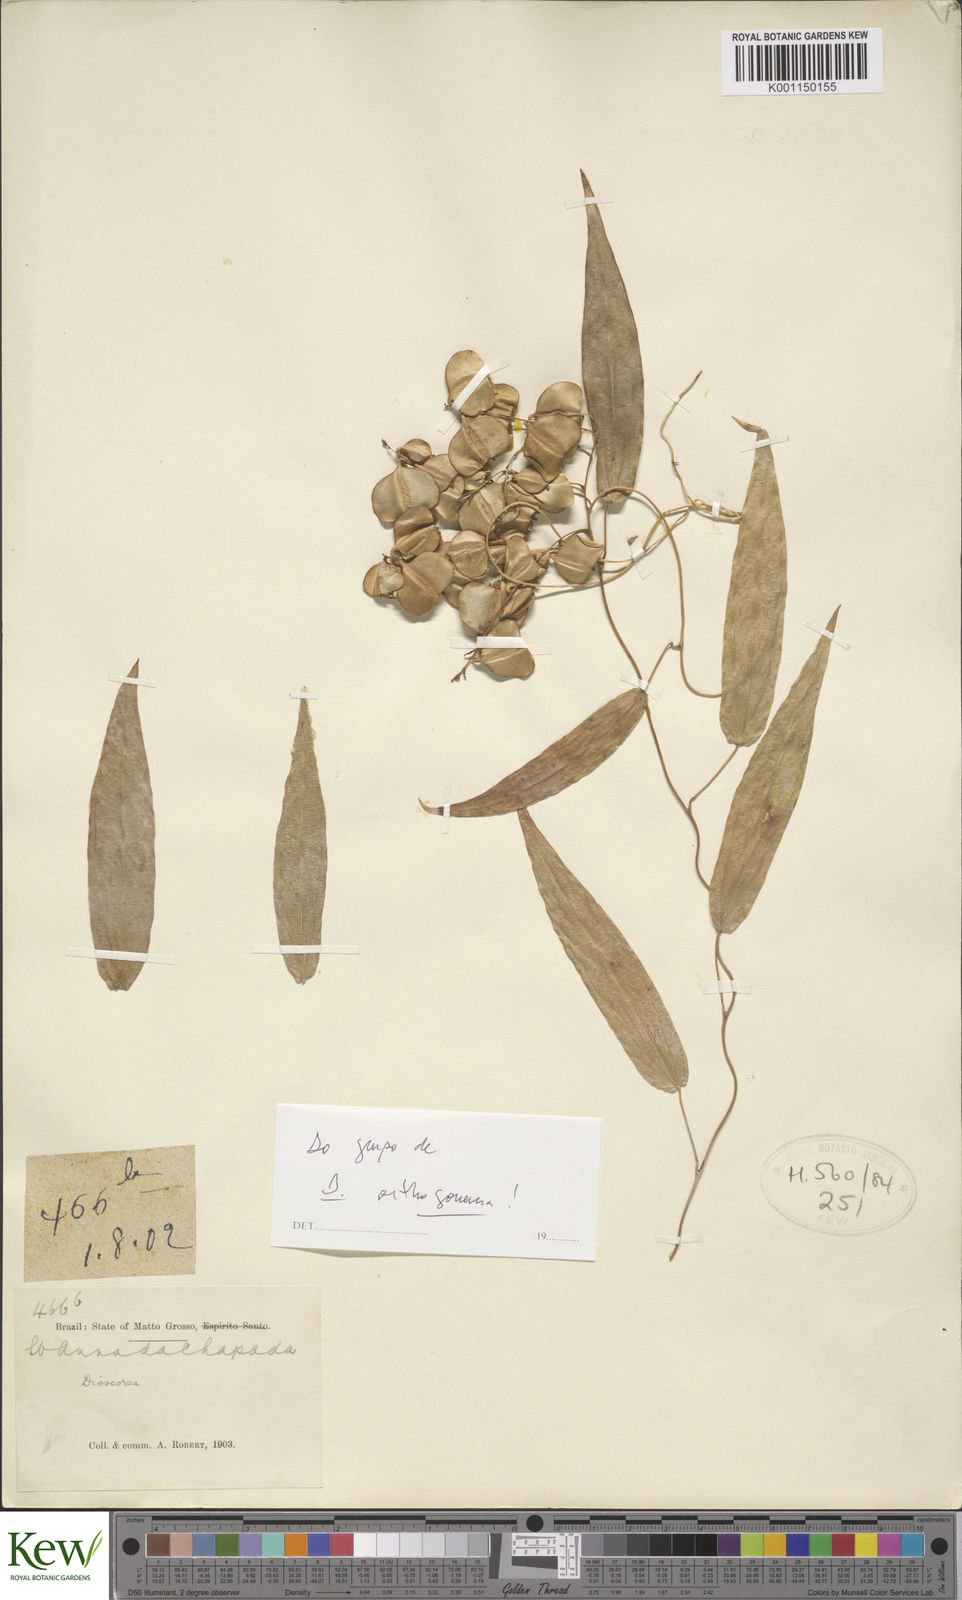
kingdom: Plantae
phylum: Tracheophyta
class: Liliopsida
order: Dioscoreales
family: Dioscoreaceae
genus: Dioscorea
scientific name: Dioscorea
